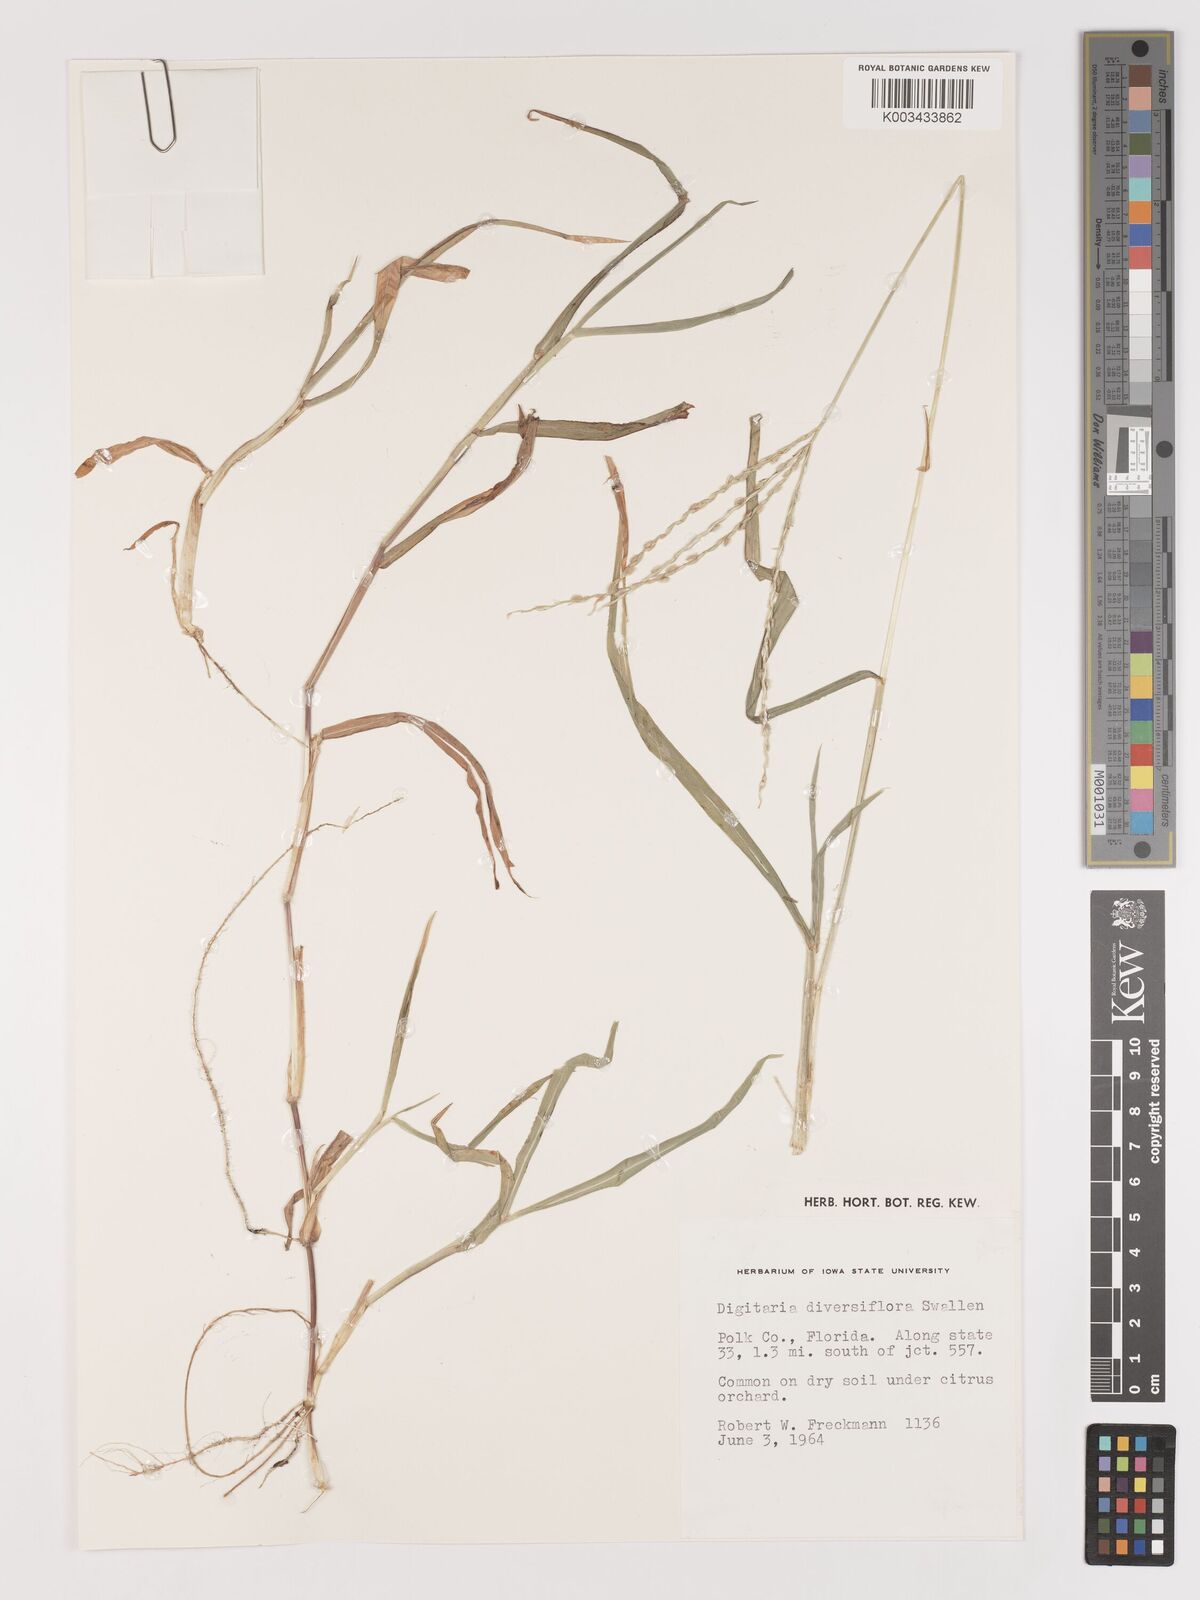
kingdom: Plantae
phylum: Tracheophyta
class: Liliopsida
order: Poales
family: Poaceae
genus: Digitaria
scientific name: Digitaria bicornis
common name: Asian crabgrass
